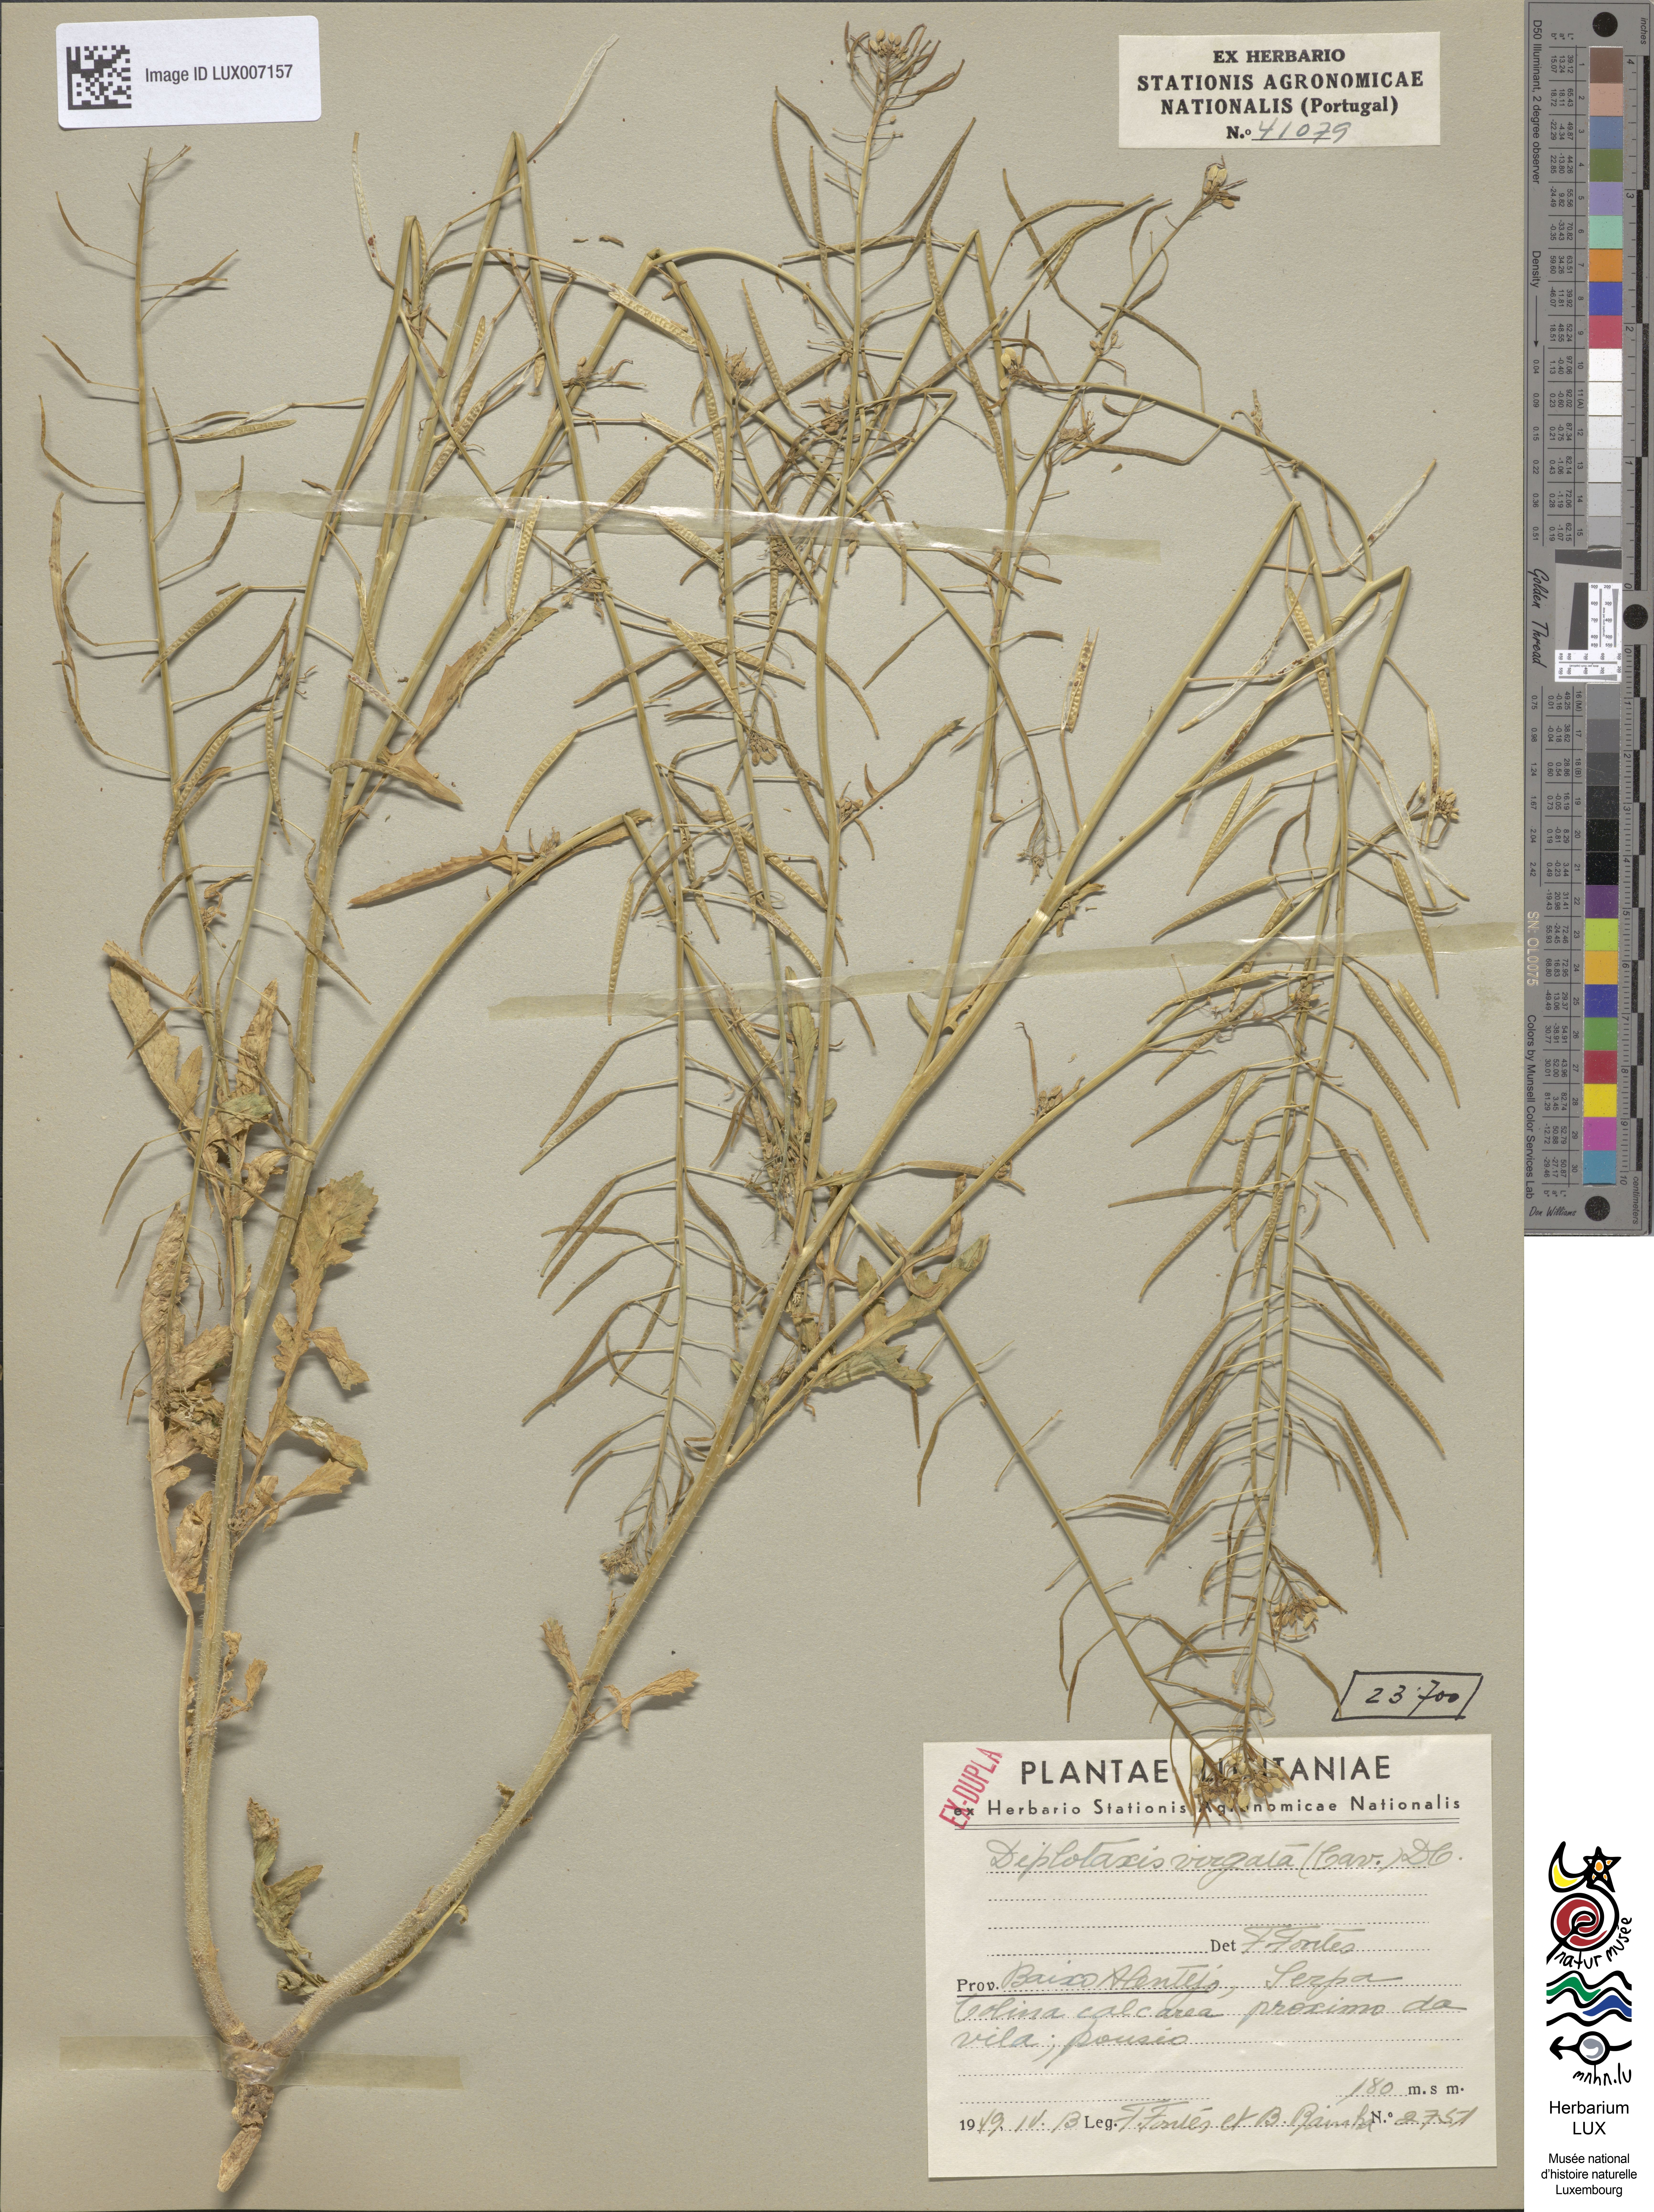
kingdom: Plantae
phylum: Tracheophyta
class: Magnoliopsida
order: Brassicales
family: Brassicaceae
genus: Diplotaxis
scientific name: Diplotaxis virgata
